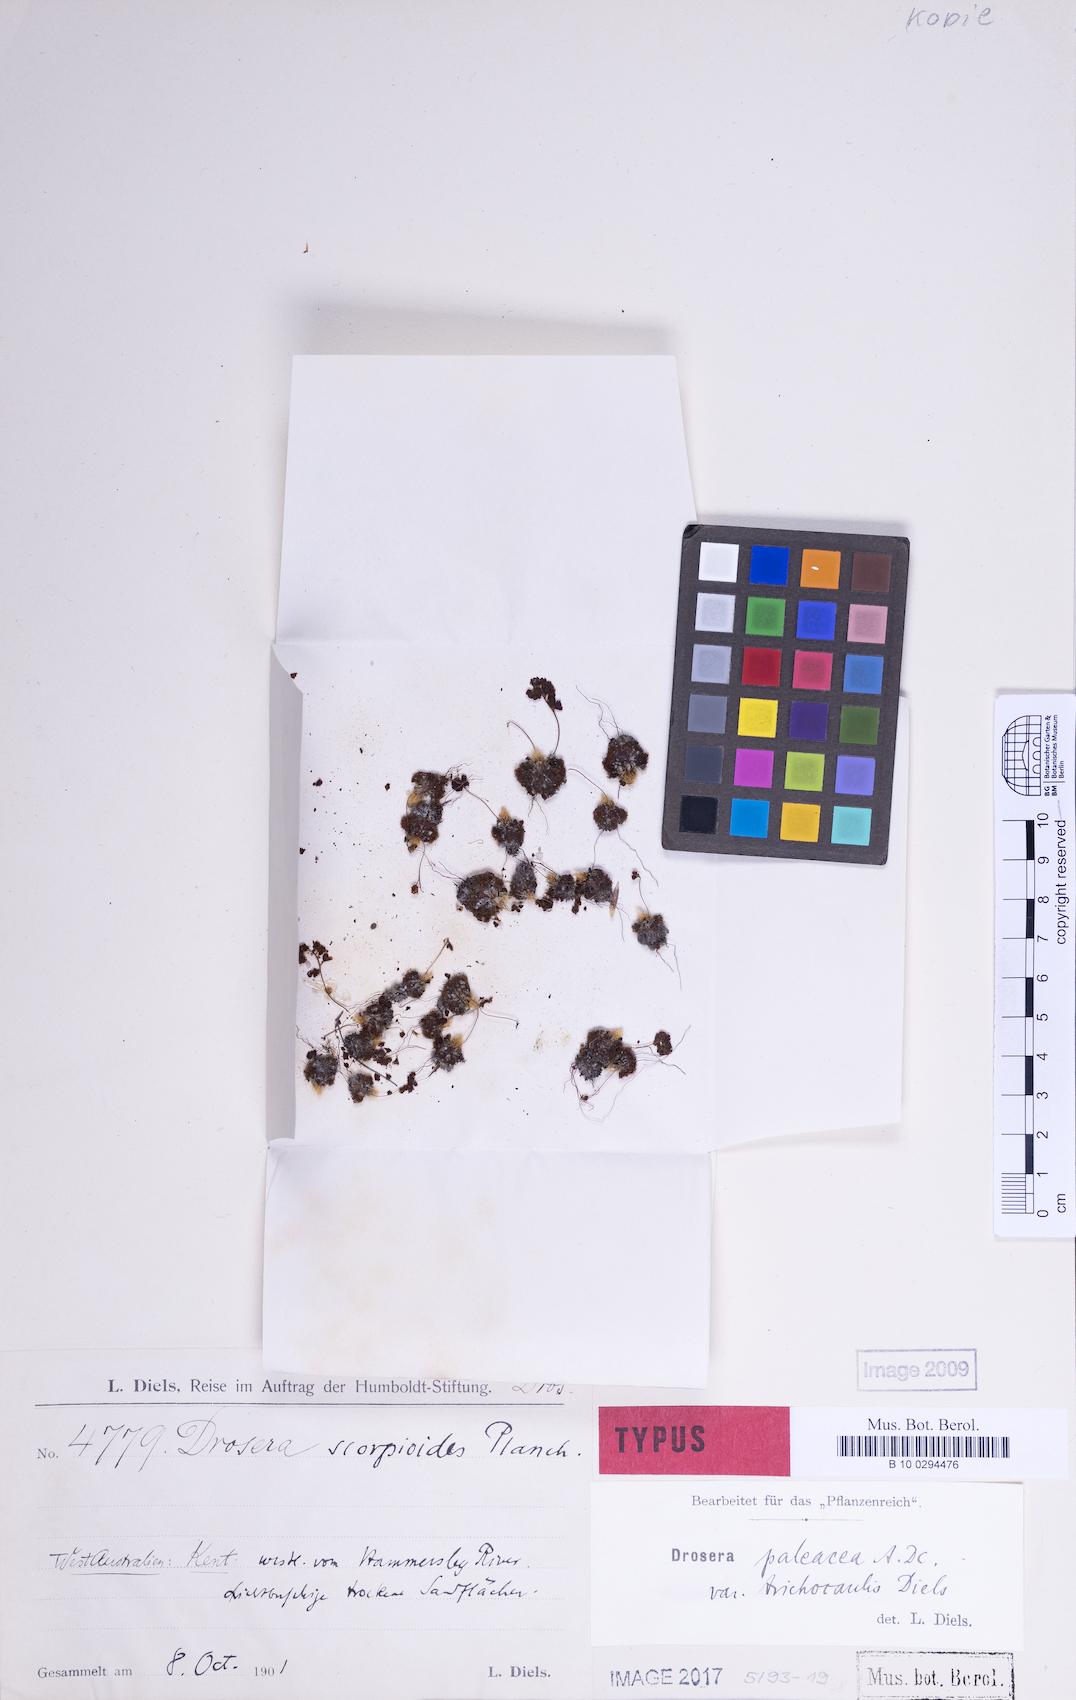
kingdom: Plantae
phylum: Tracheophyta
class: Magnoliopsida
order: Caryophyllales
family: Droseraceae
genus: Drosera
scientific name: Drosera paleacea
